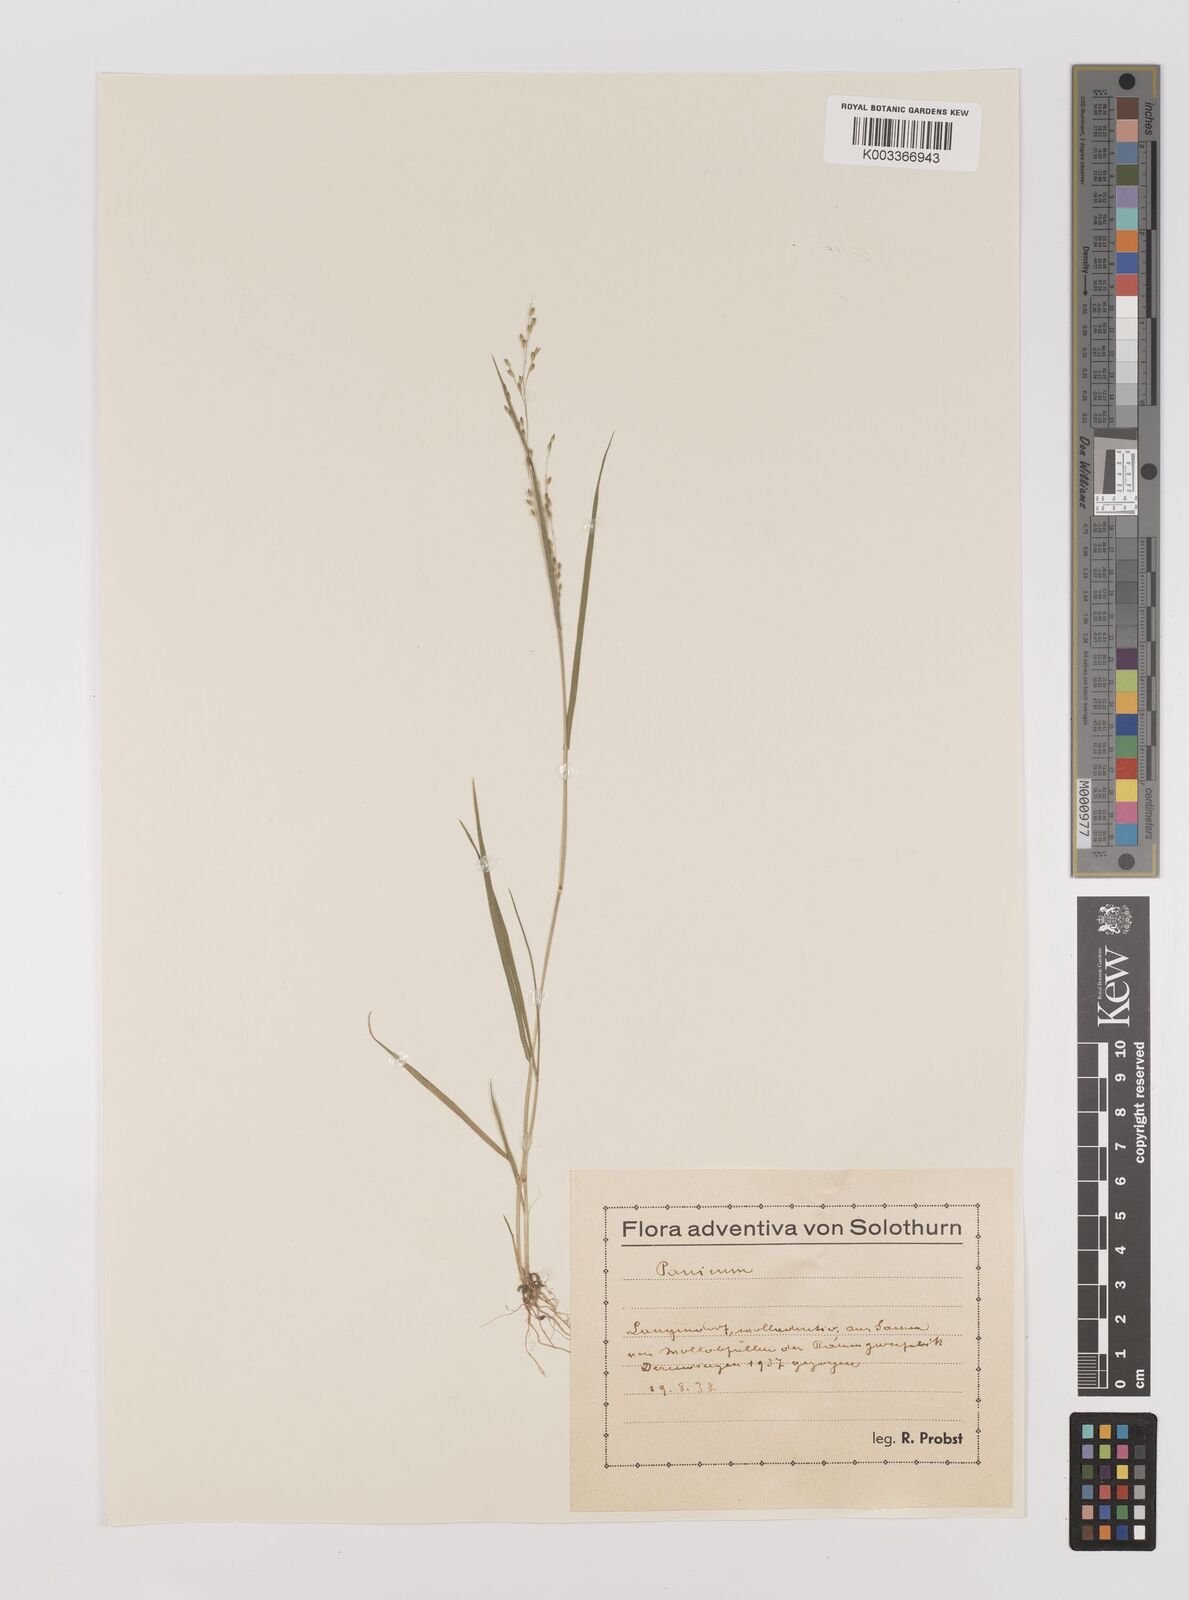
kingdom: Plantae
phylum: Tracheophyta
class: Liliopsida
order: Poales
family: Poaceae
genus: Panicum
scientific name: Panicum decompositum
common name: Australian millet
